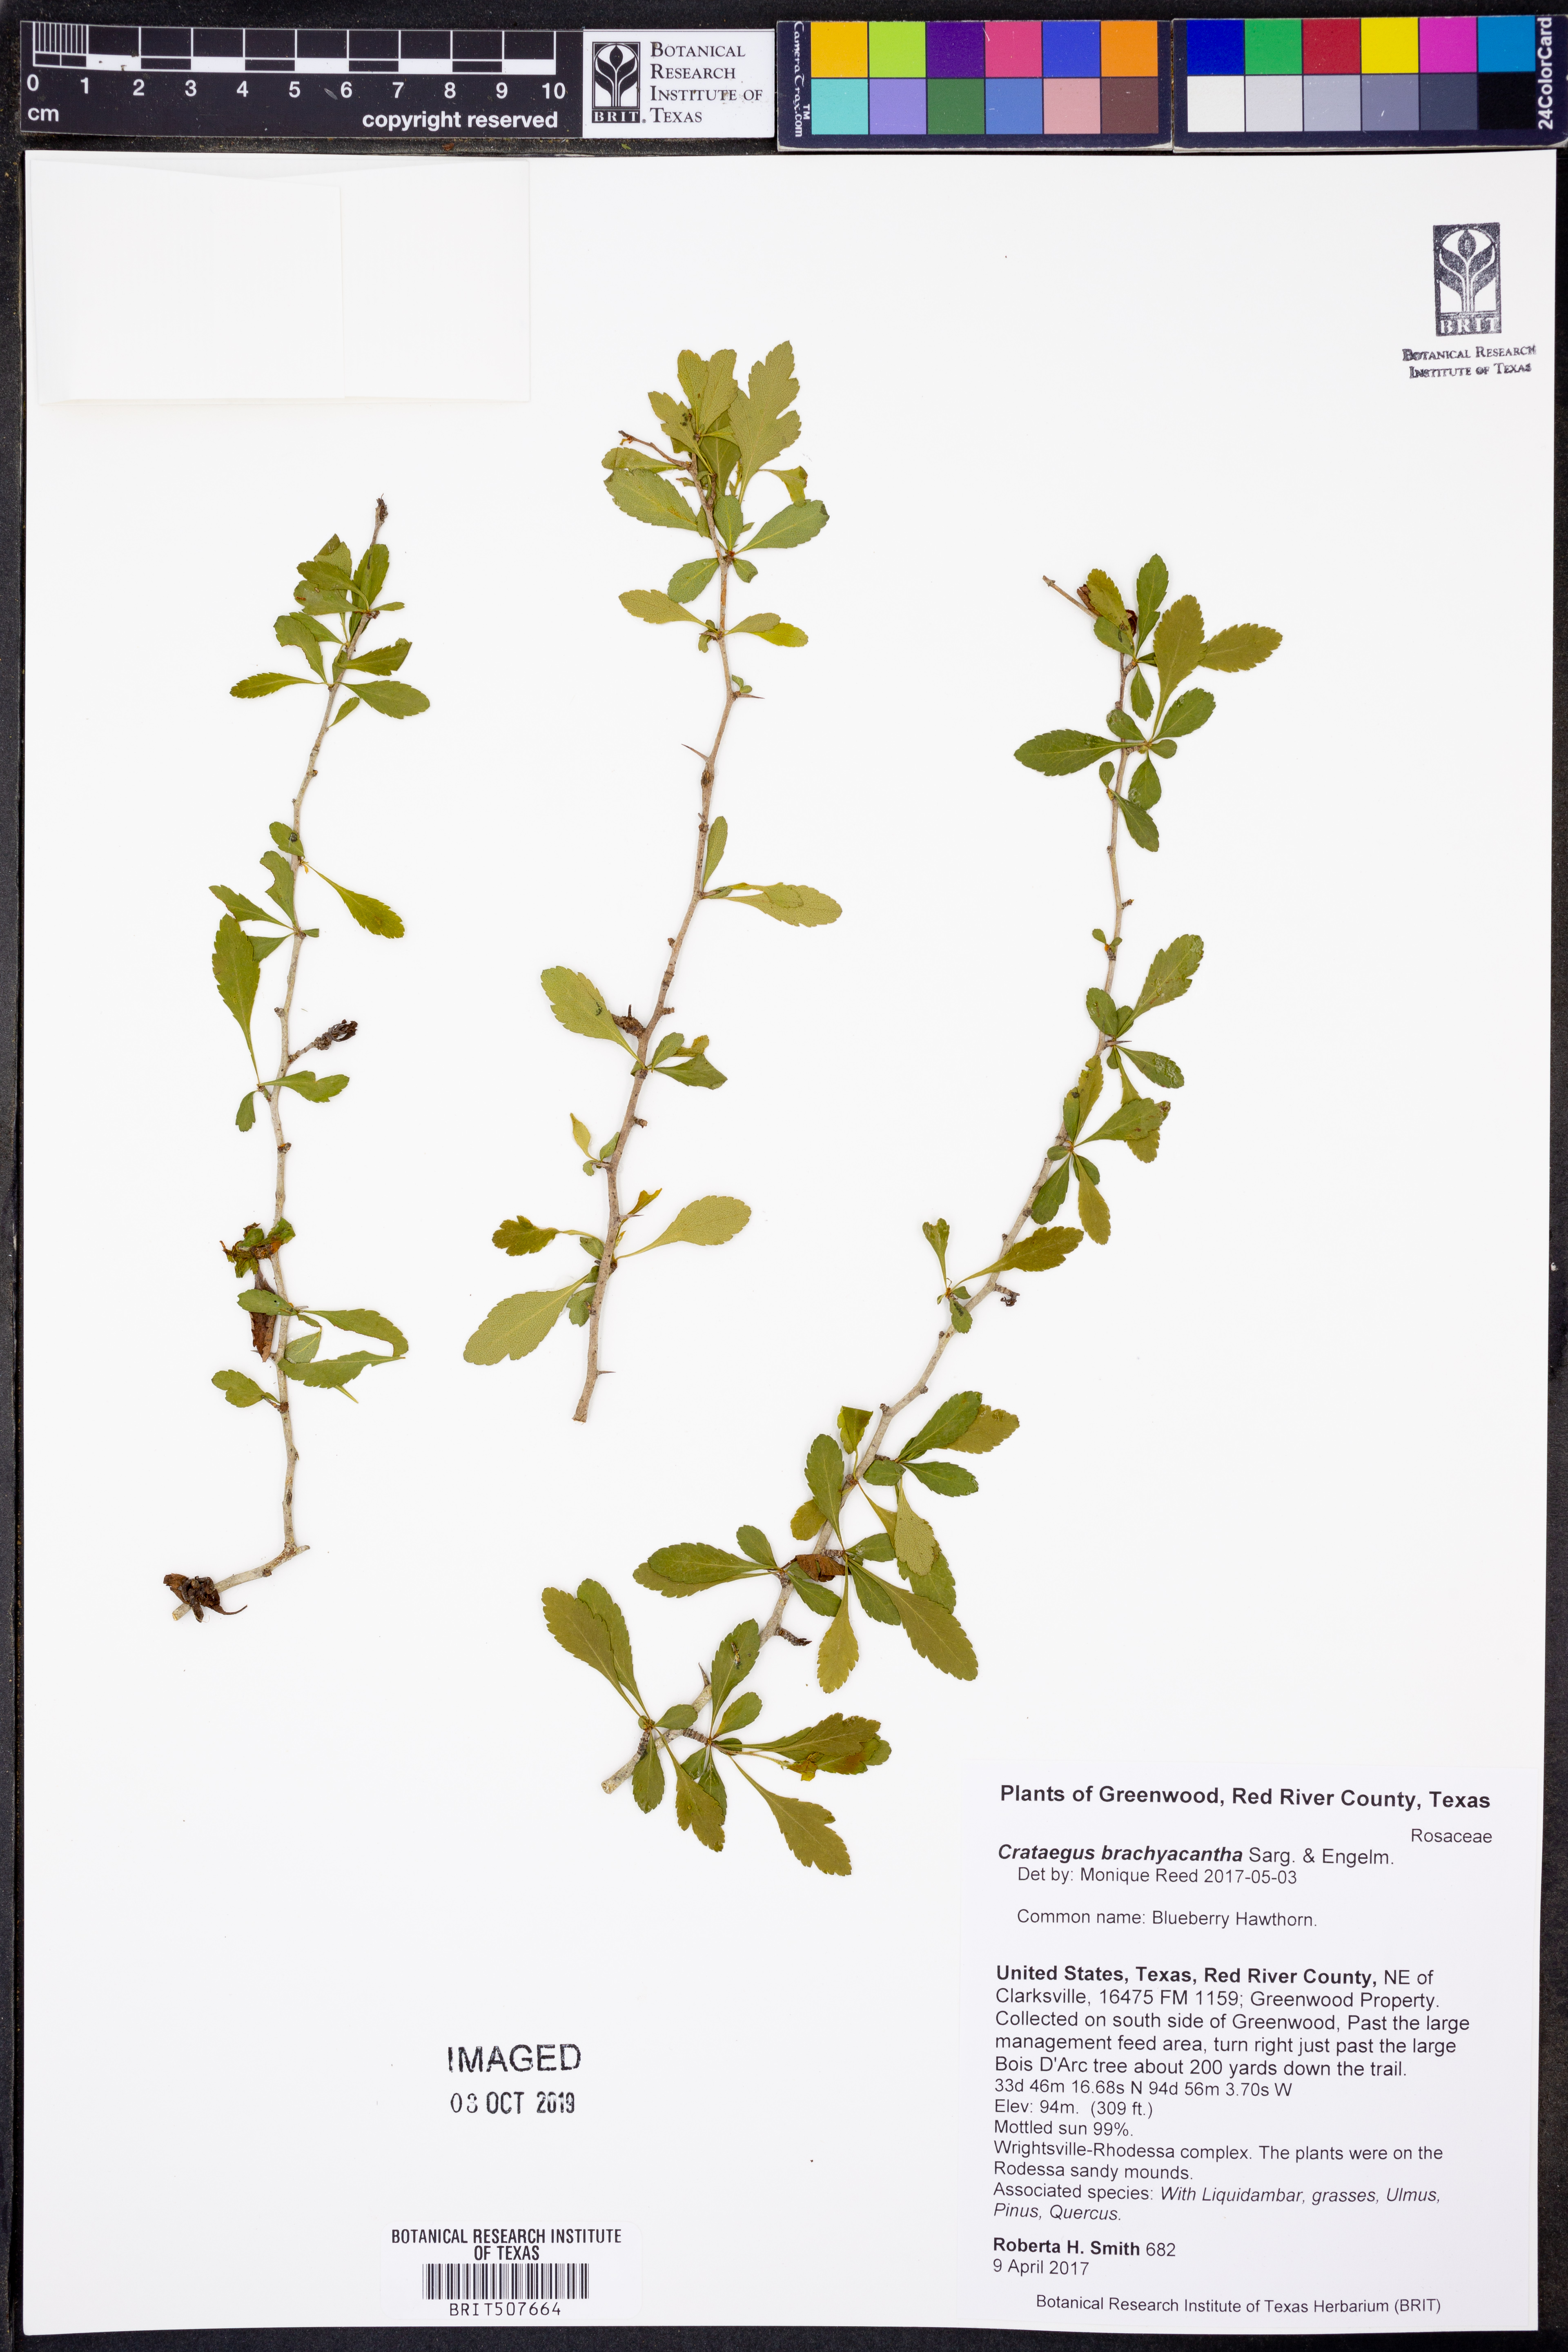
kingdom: Plantae
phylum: Tracheophyta
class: Magnoliopsida
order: Rosales
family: Rosaceae
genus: Crataegus
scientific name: Crataegus brachyacantha
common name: Blueberry-hawthorn
